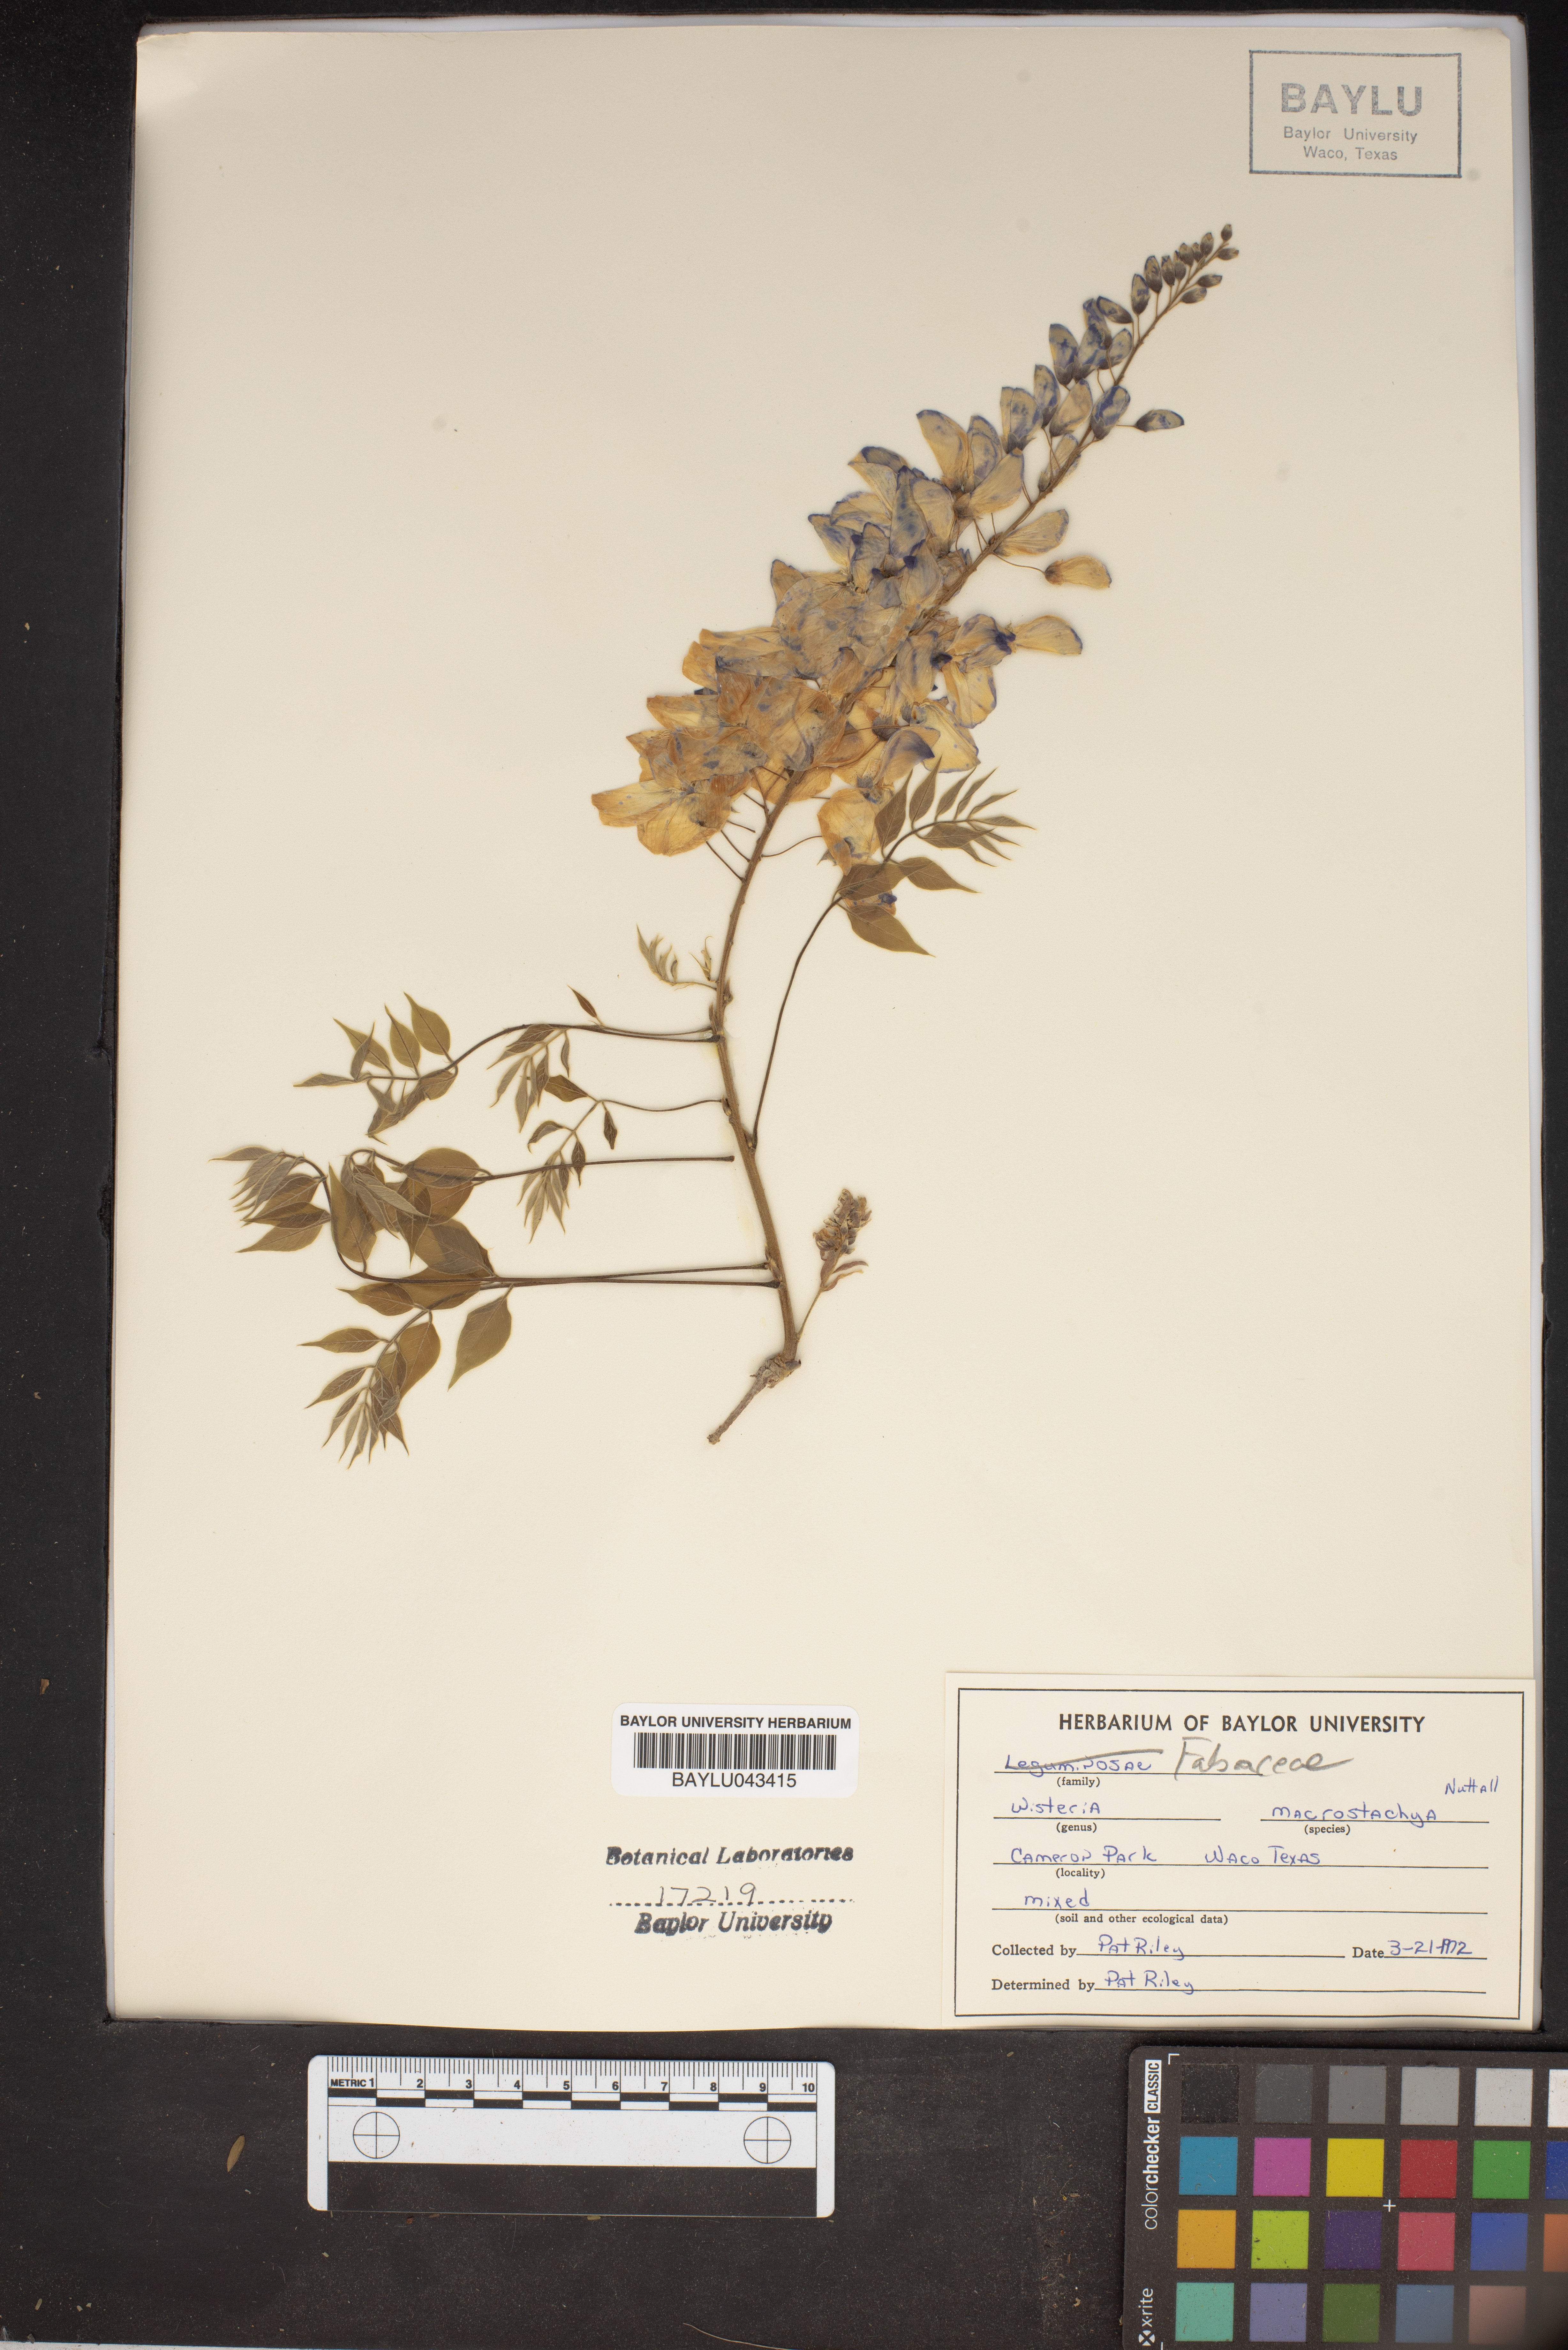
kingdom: Plantae
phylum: Tracheophyta
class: Magnoliopsida
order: Fabales
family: Fabaceae
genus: Wisteria
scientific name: Wisteria frutescens
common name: American wisteria
